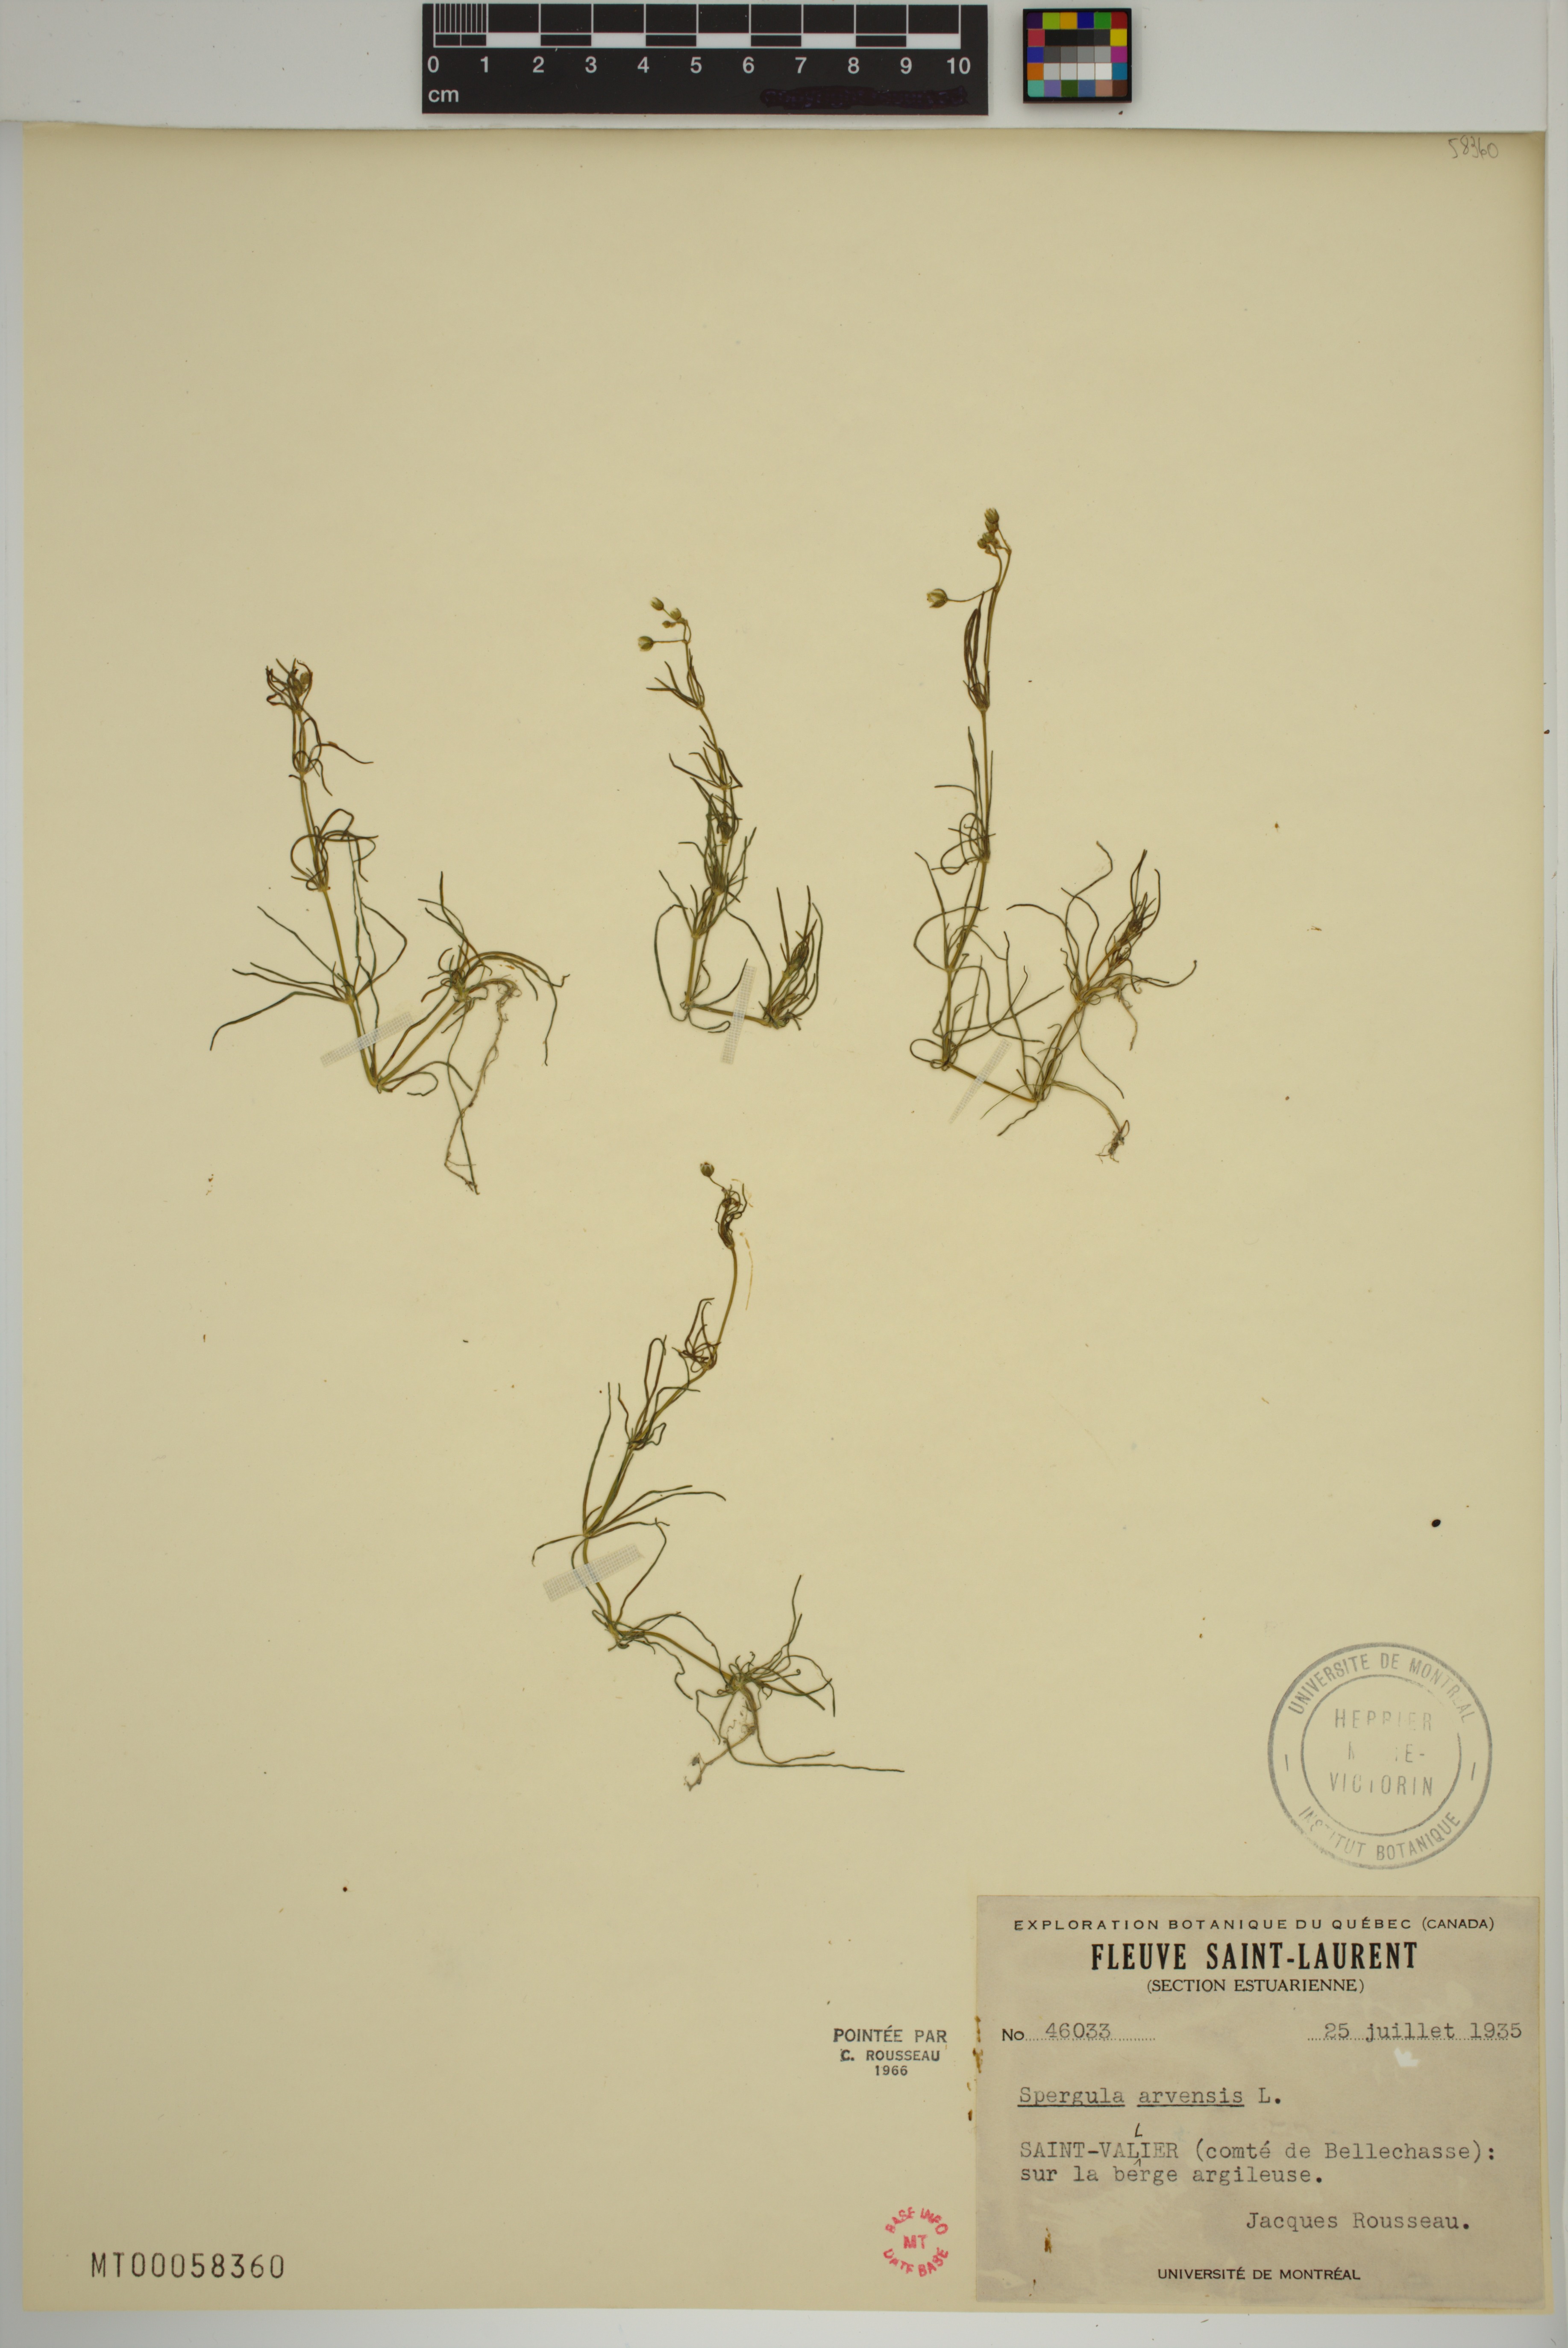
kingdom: Plantae
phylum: Tracheophyta
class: Magnoliopsida
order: Caryophyllales
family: Caryophyllaceae
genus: Spergula
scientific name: Spergula arvensis
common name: Corn spurrey
